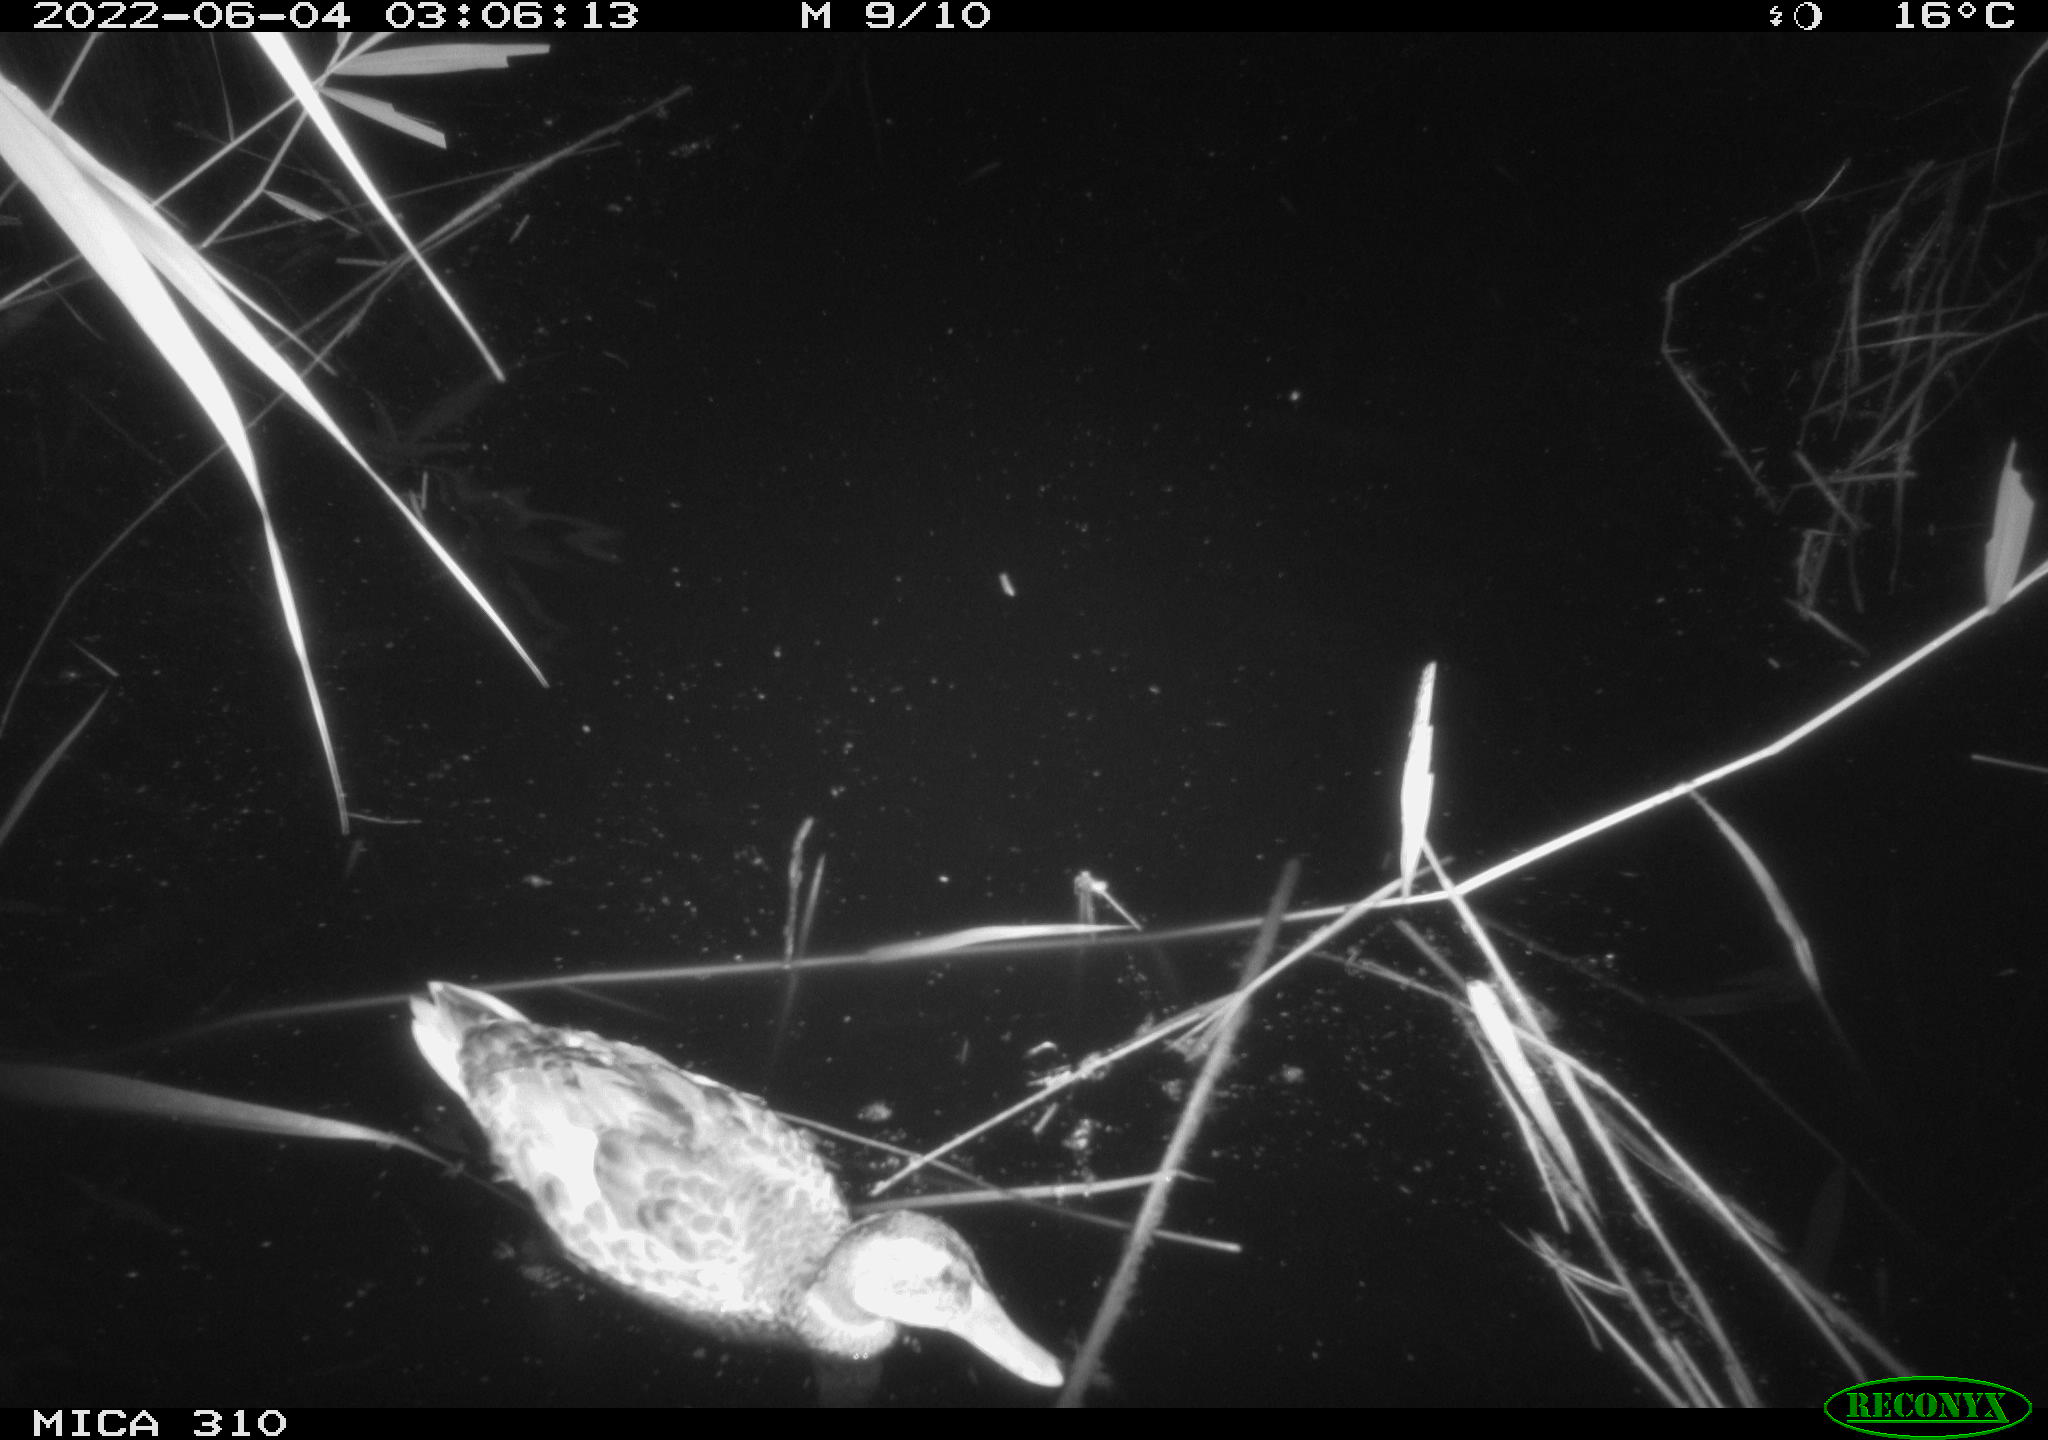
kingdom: Animalia
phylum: Chordata
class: Aves
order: Anseriformes
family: Anatidae
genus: Anas
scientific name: Anas platyrhynchos
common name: Mallard
